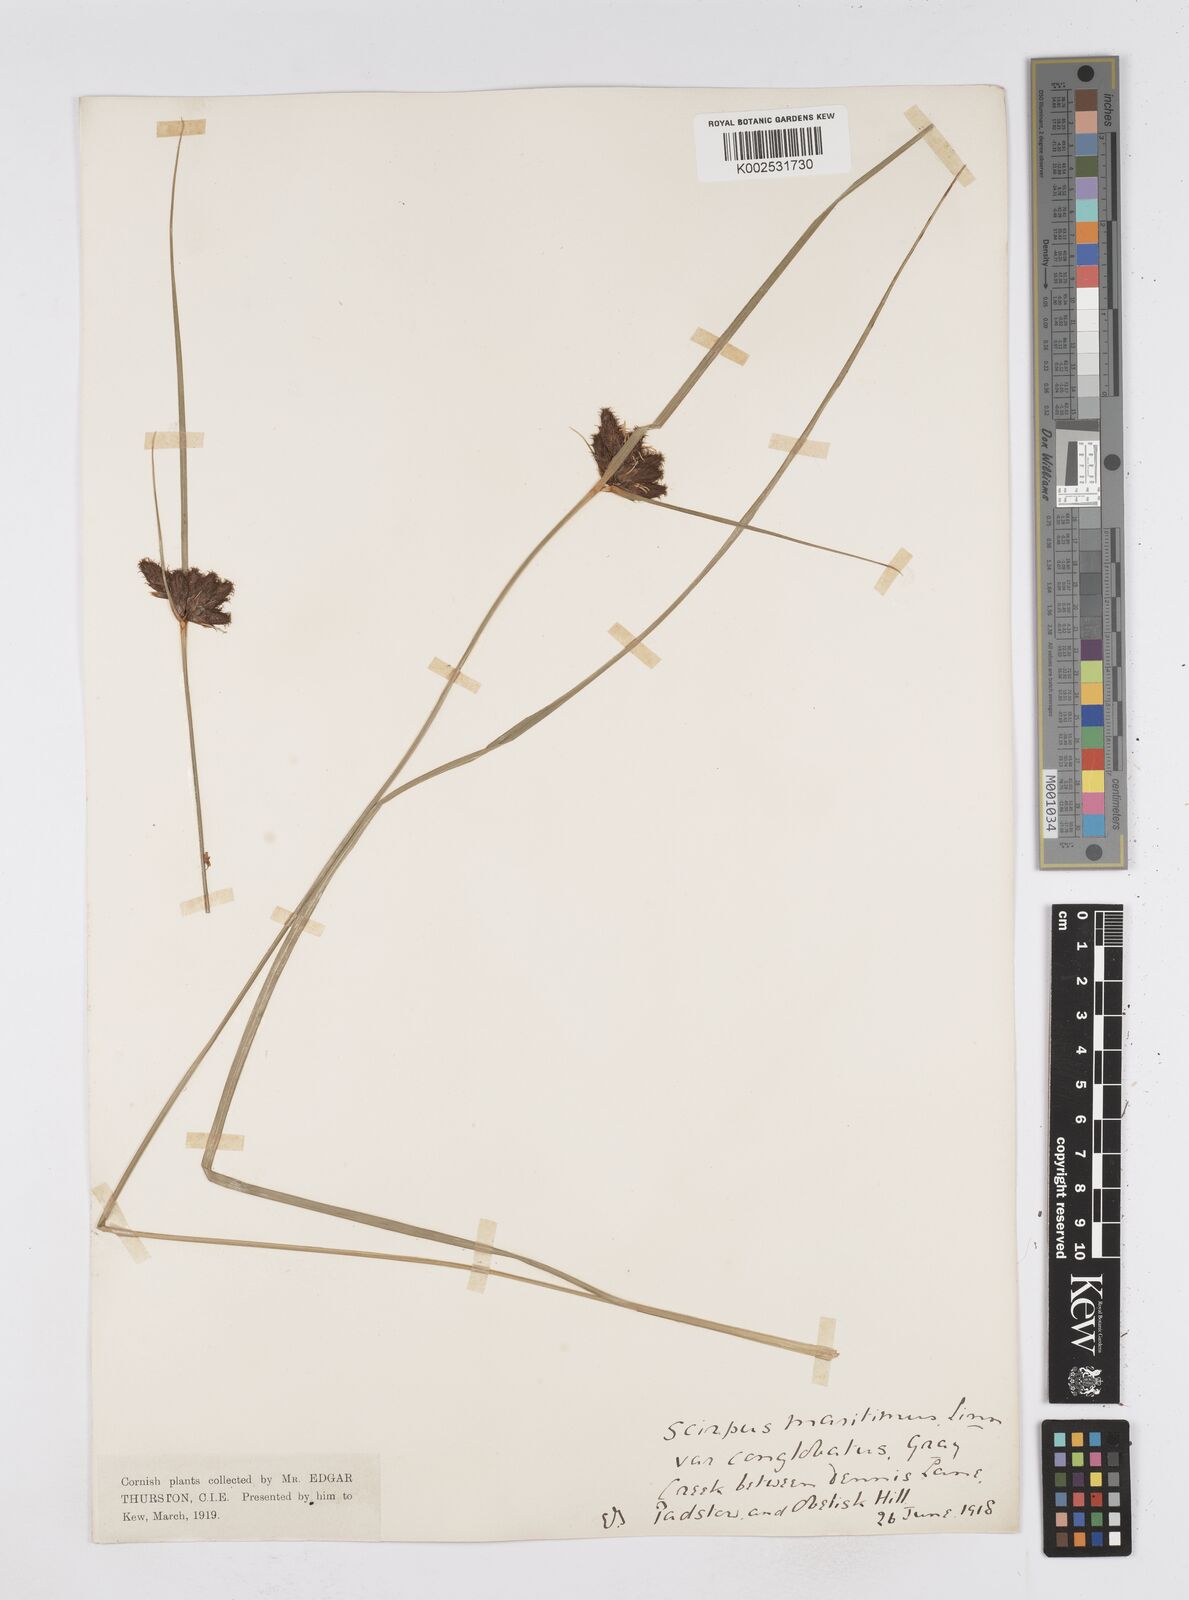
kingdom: Plantae
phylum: Tracheophyta
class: Liliopsida
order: Poales
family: Cyperaceae
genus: Bolboschoenus
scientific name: Bolboschoenus maritimus
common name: Sea club-rush
